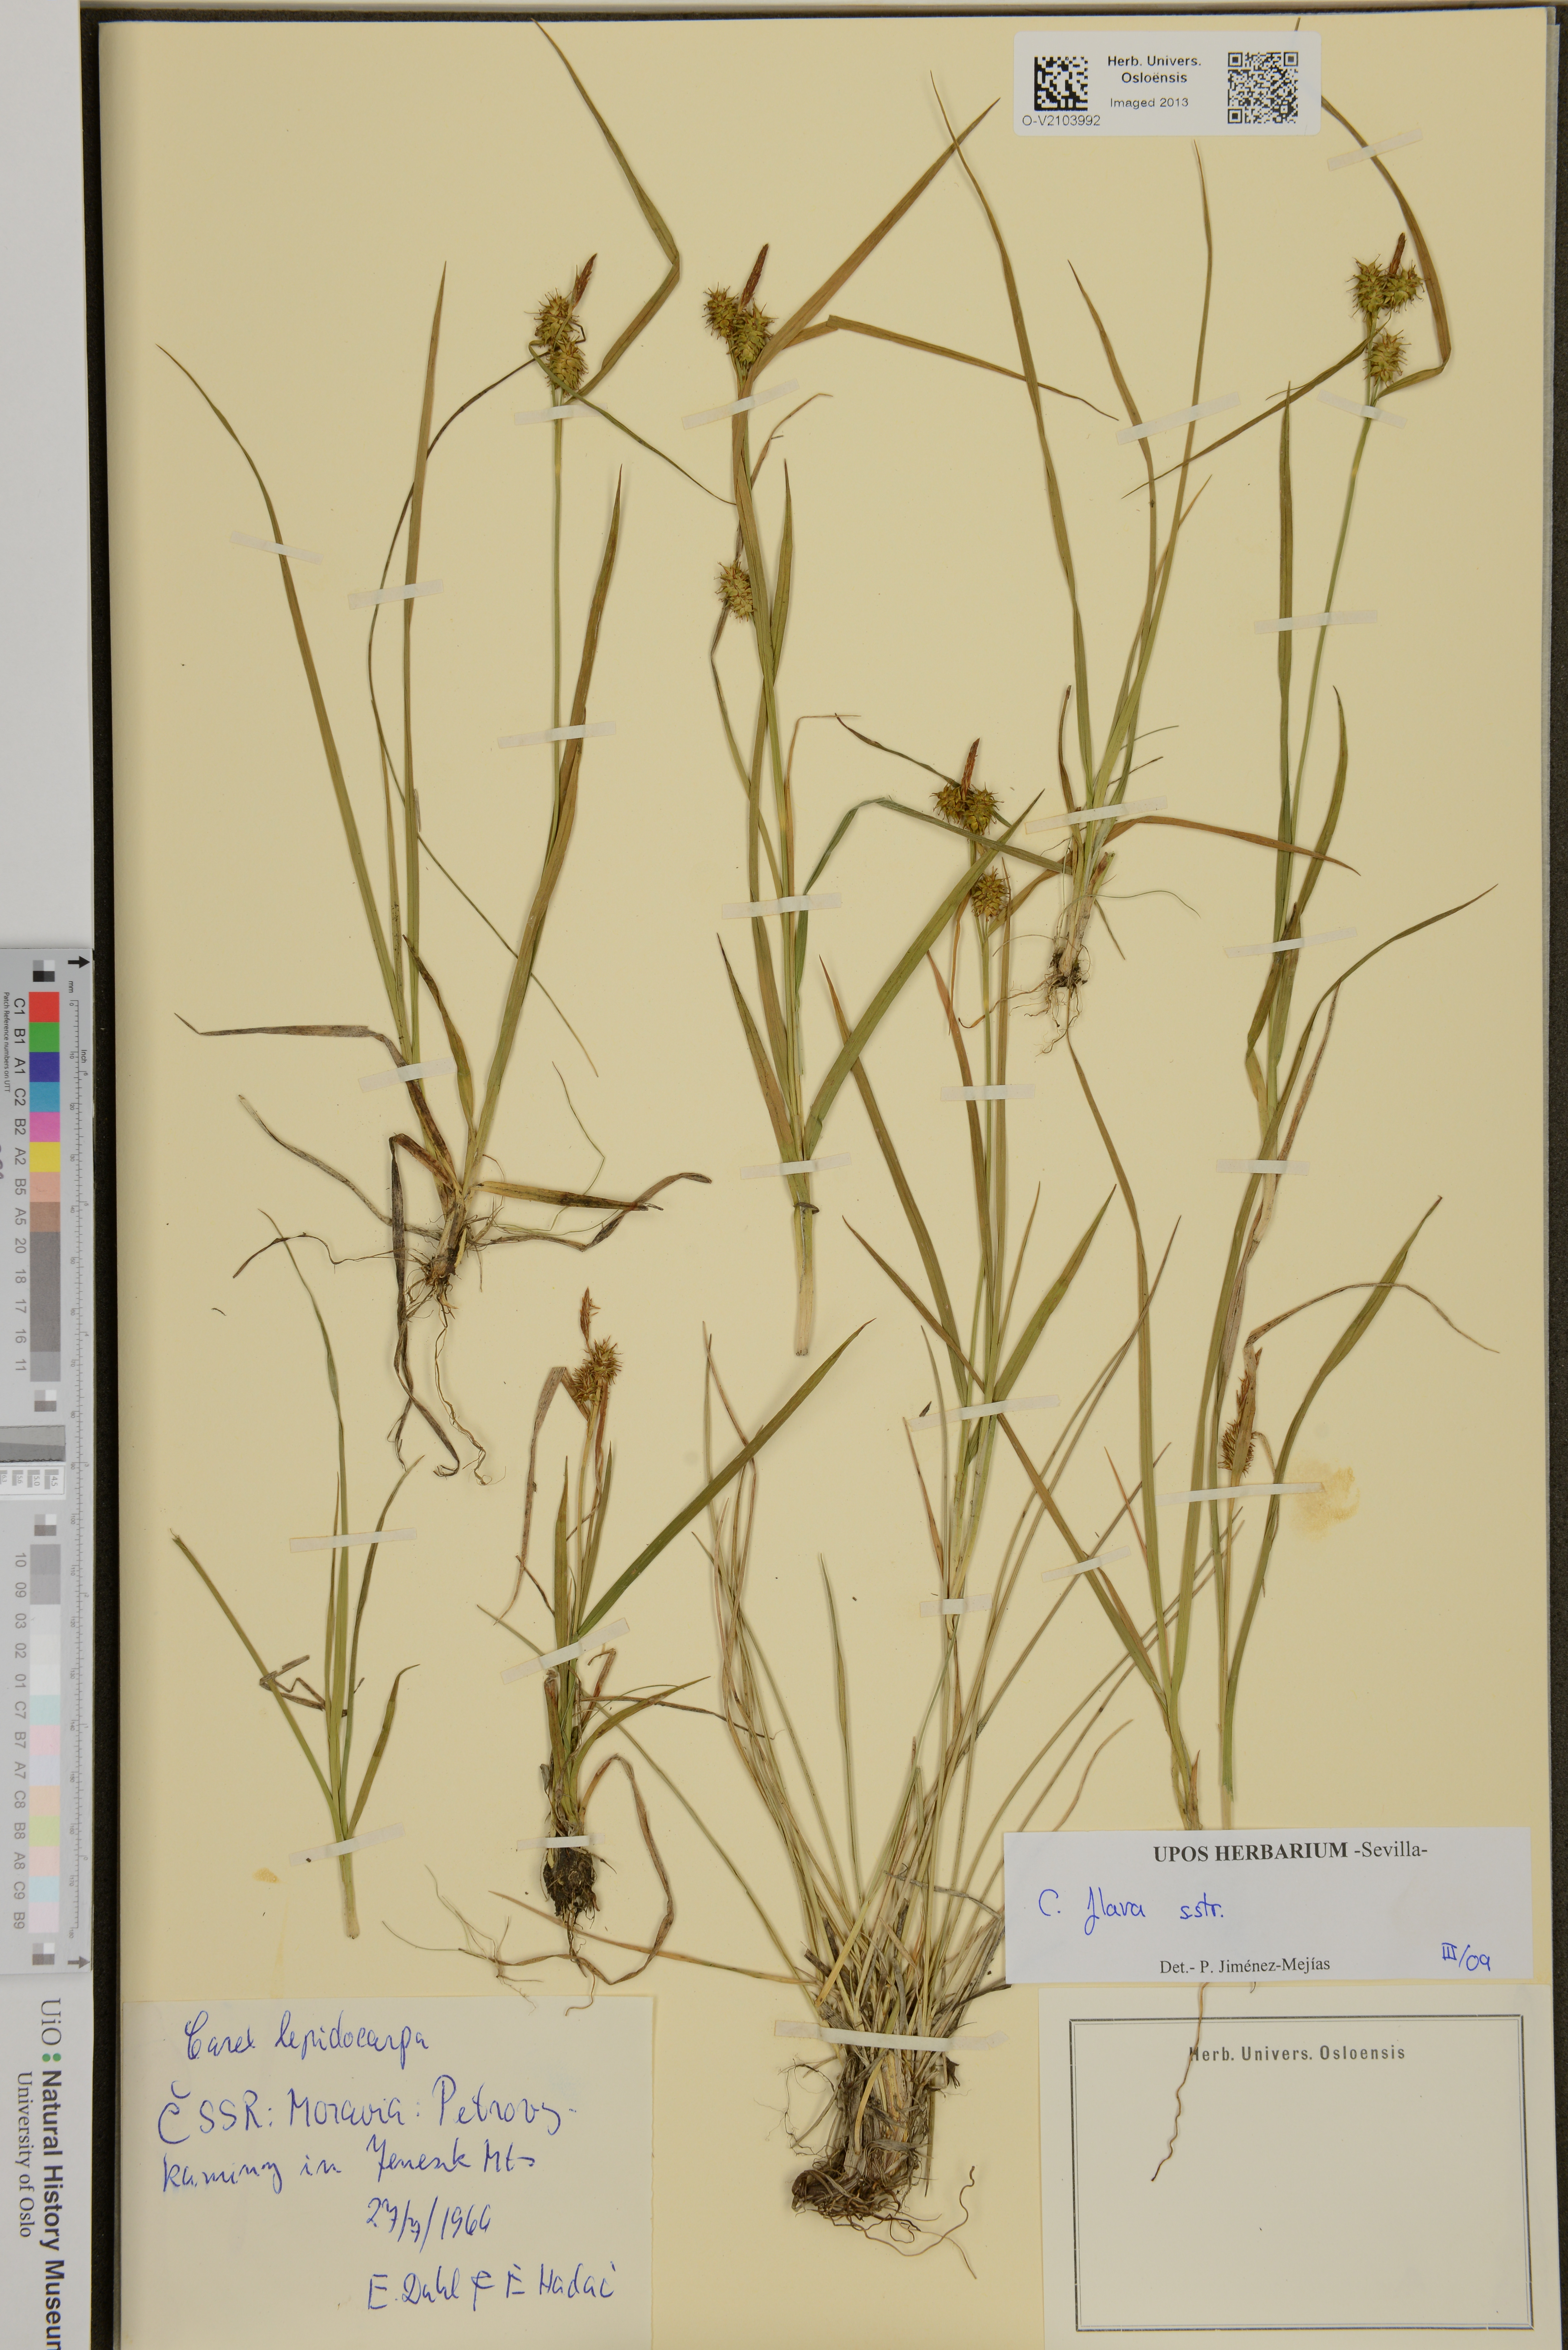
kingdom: Plantae
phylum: Tracheophyta
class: Liliopsida
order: Poales
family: Cyperaceae
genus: Carex
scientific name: Carex flava
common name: Large yellow-sedge
